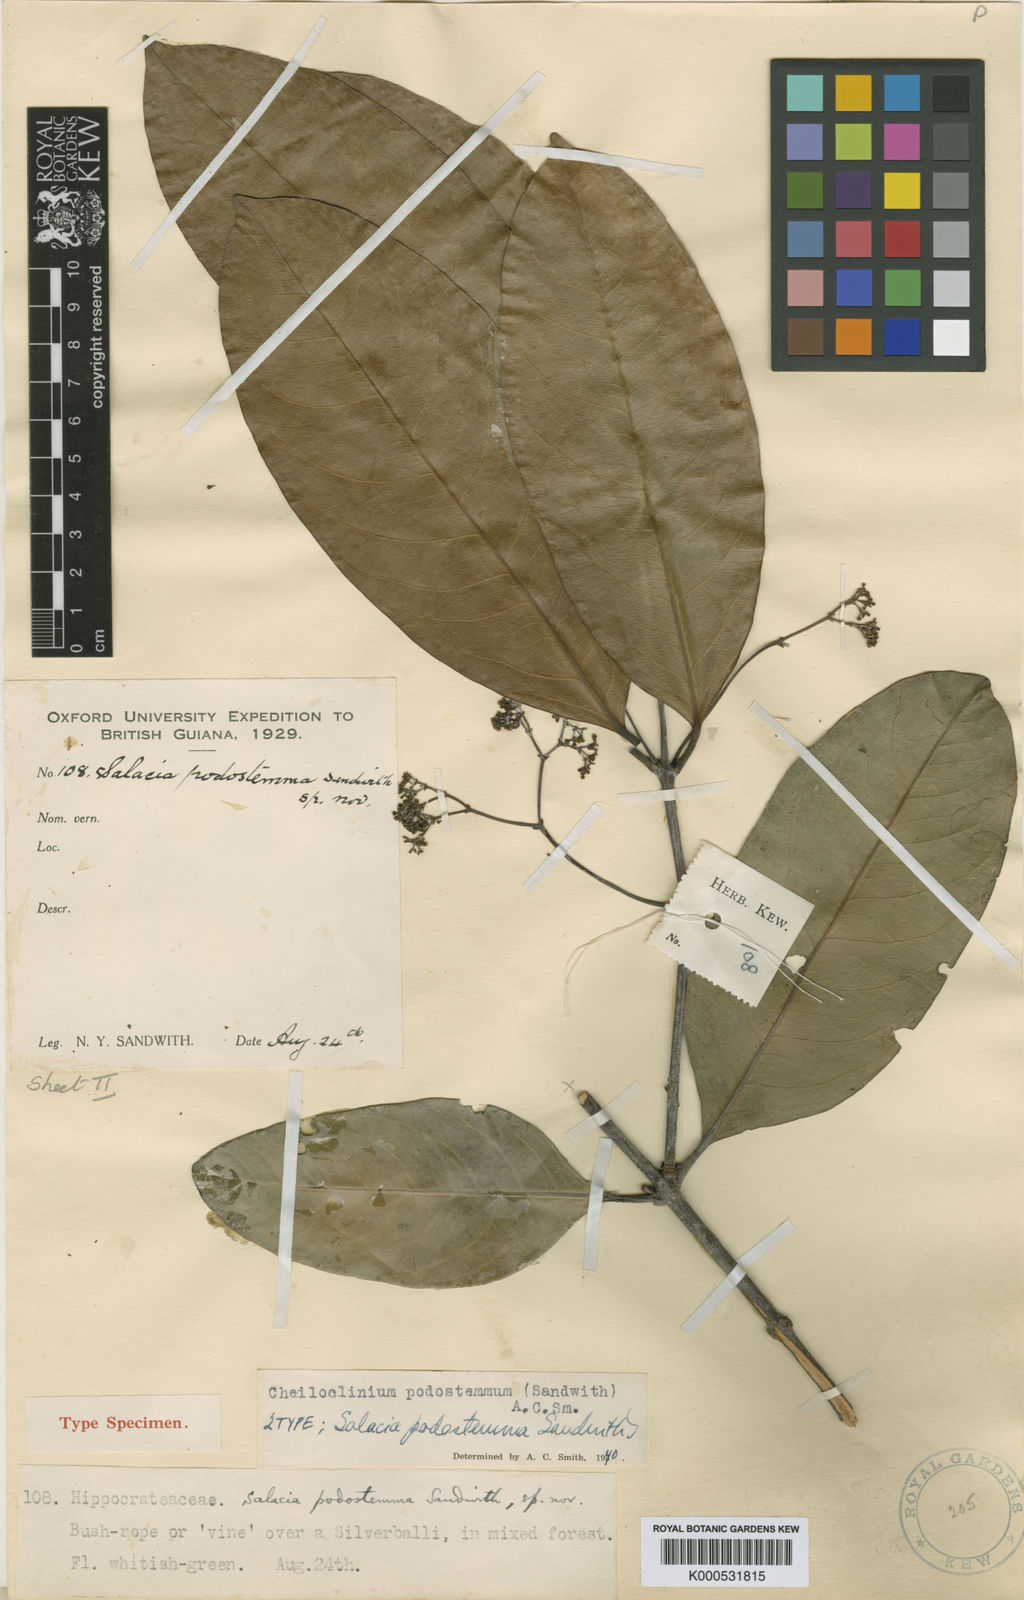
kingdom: Plantae
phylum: Tracheophyta
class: Magnoliopsida
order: Celastrales
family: Celastraceae
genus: Cheiloclinium
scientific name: Cheiloclinium belizense
